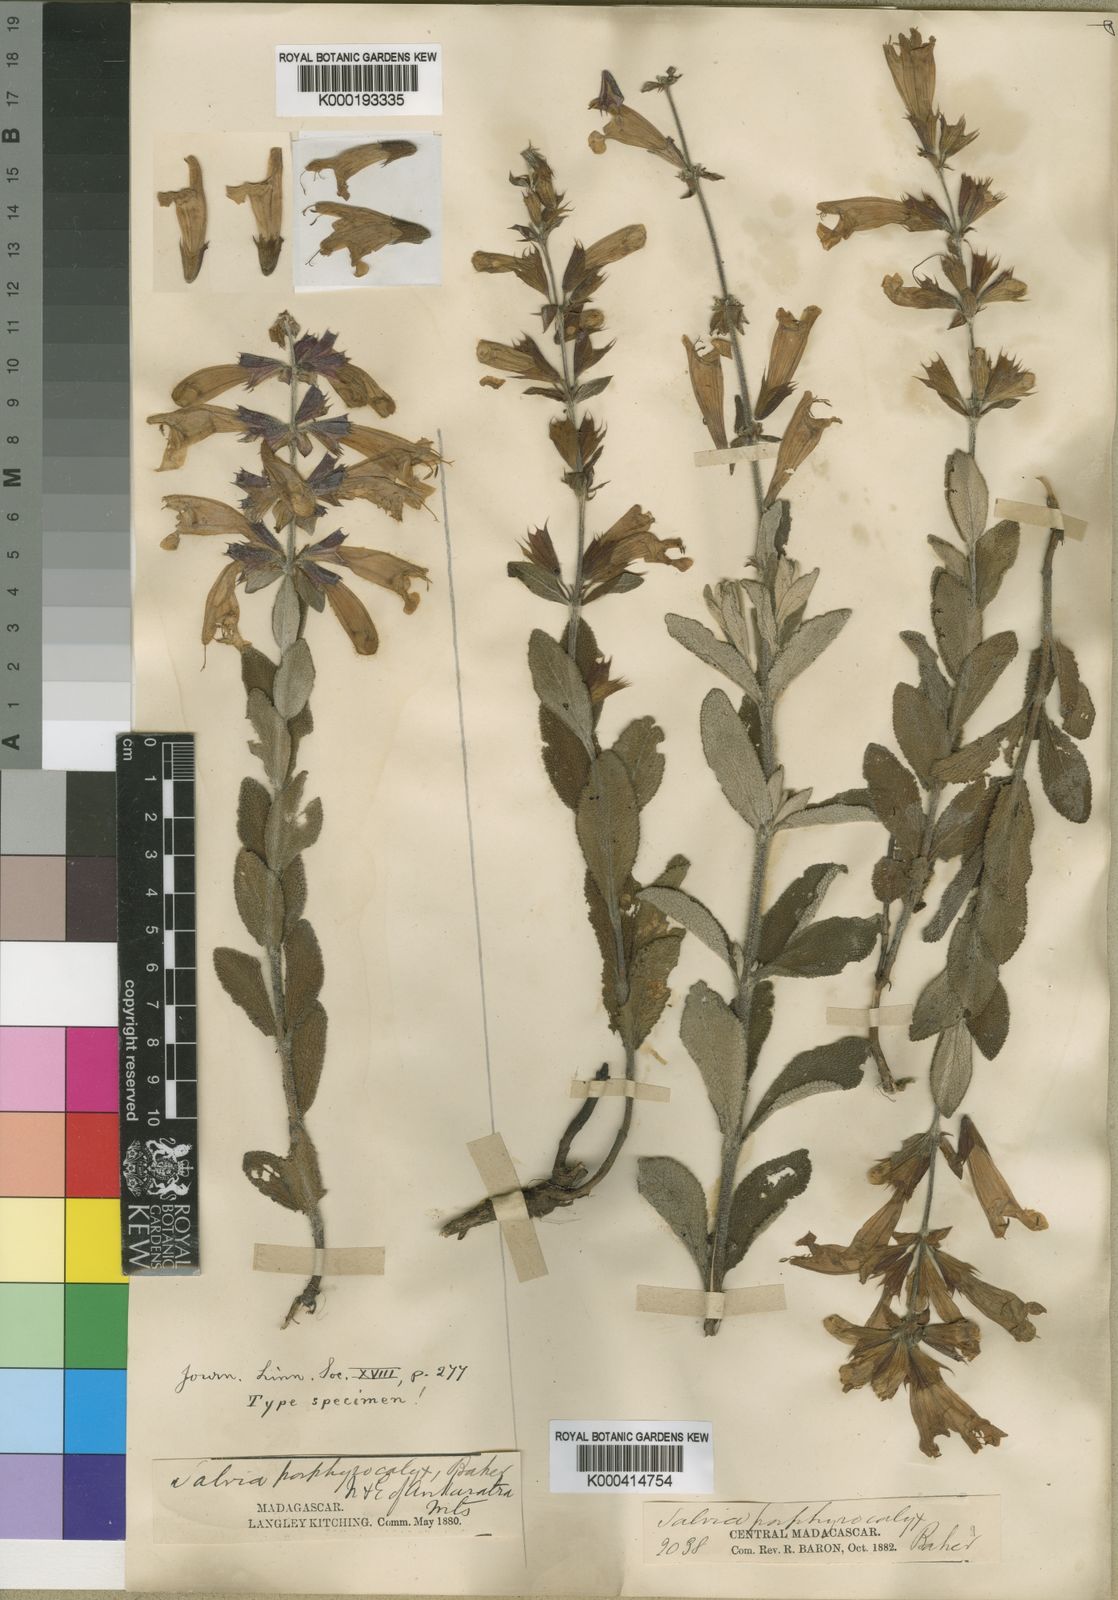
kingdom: Plantae
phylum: Tracheophyta
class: Magnoliopsida
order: Lamiales
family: Lamiaceae
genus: Salvia
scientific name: Salvia porphyrocalyx
